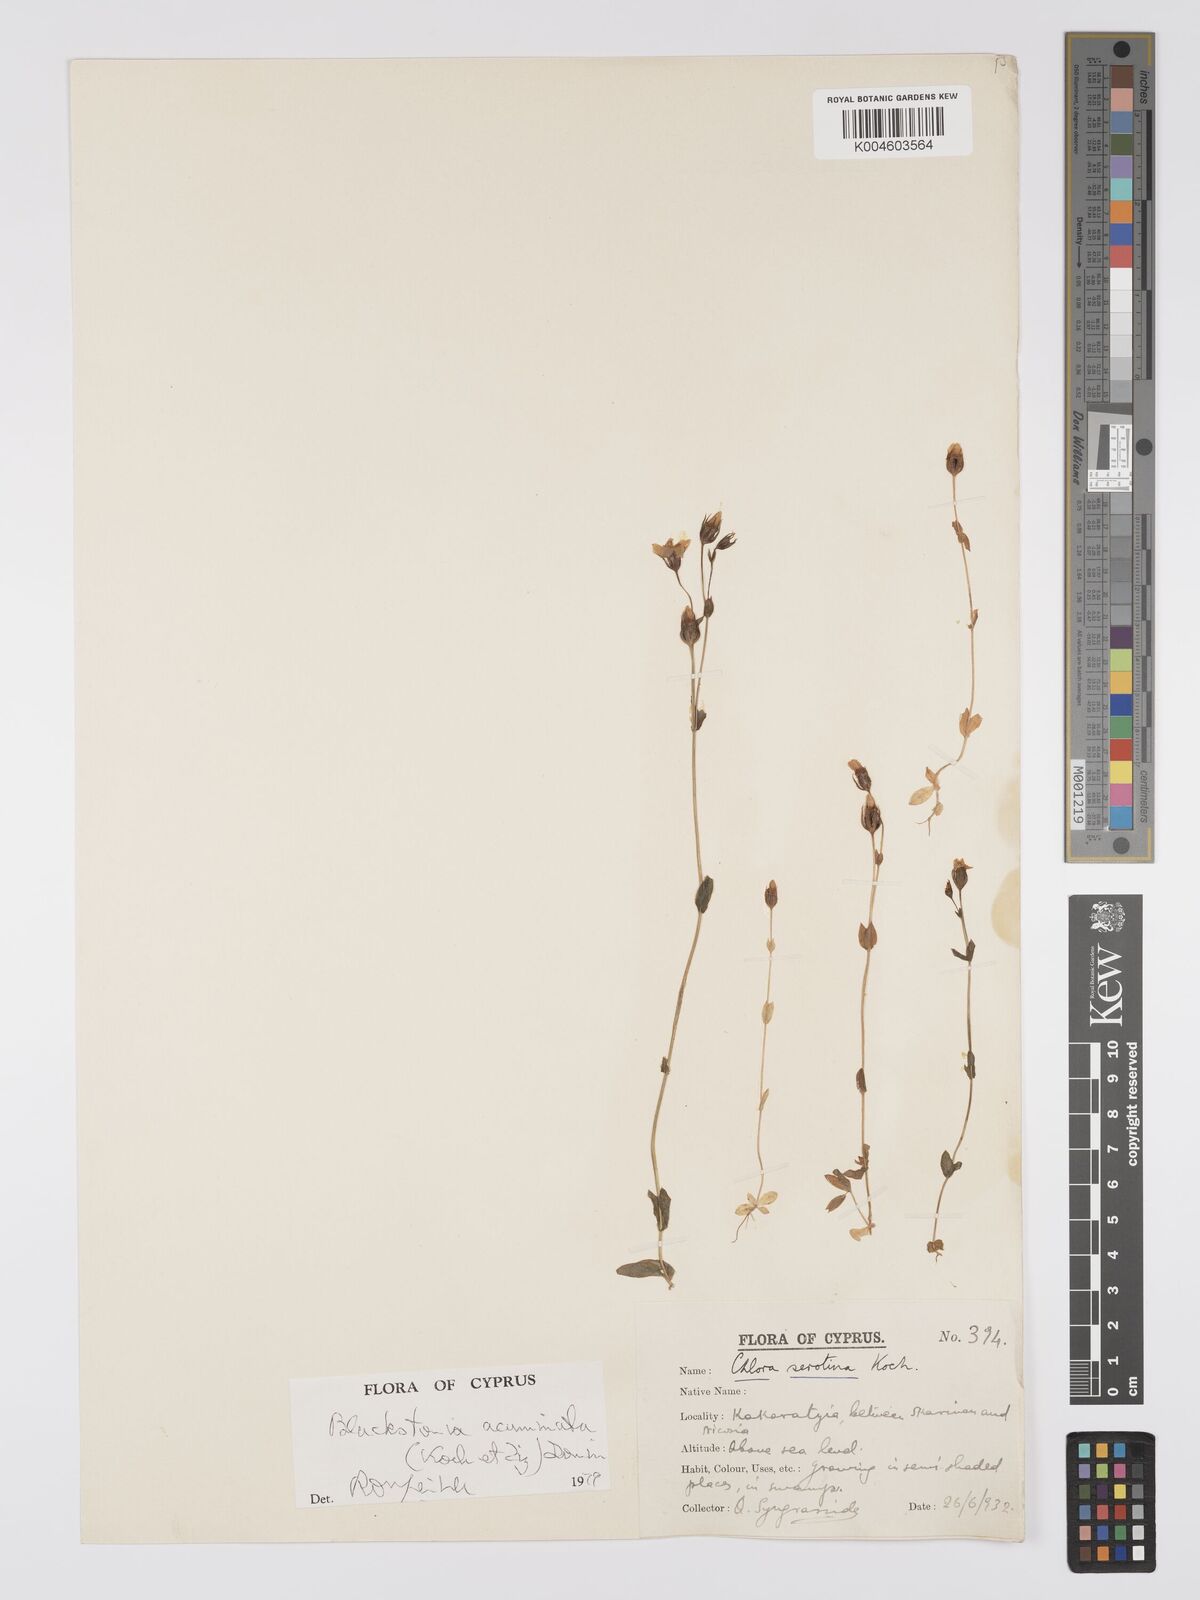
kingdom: Plantae
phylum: Tracheophyta
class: Magnoliopsida
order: Gentianales
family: Gentianaceae
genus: Blackstonia
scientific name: Blackstonia acuminata
